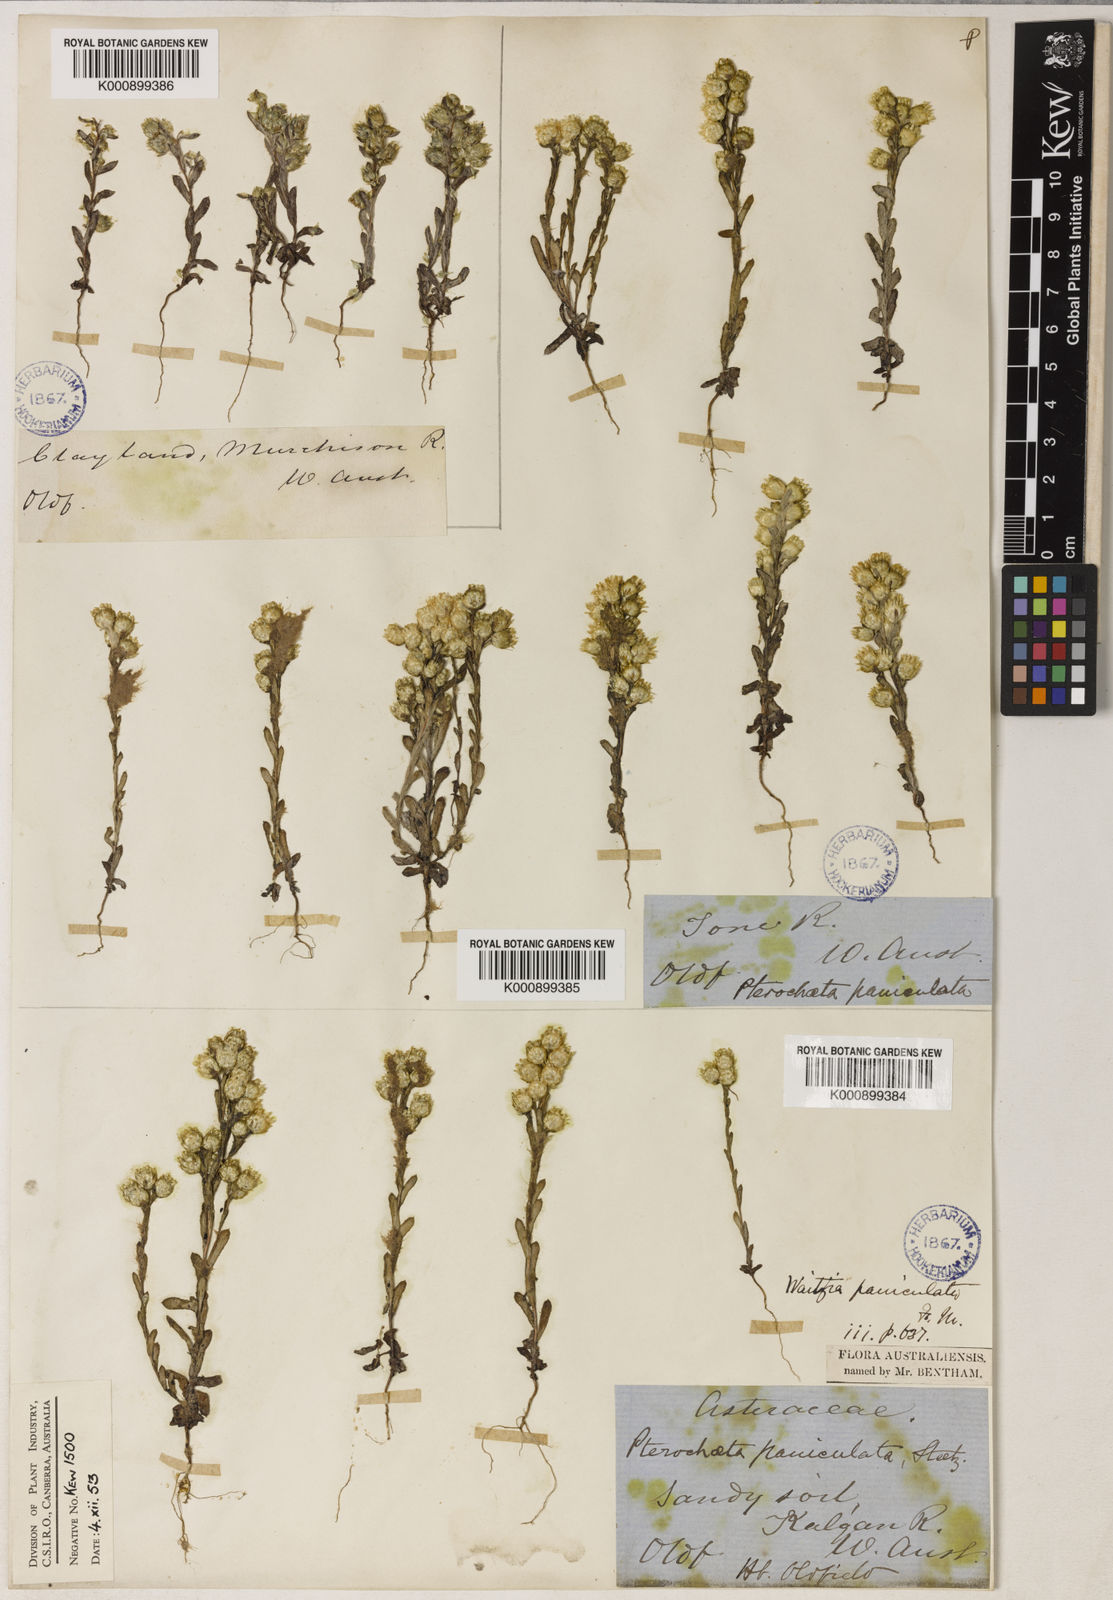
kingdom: Plantae
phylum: Tracheophyta
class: Magnoliopsida
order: Asterales
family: Asteraceae
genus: Pterochaeta
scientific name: Pterochaeta paniculata
